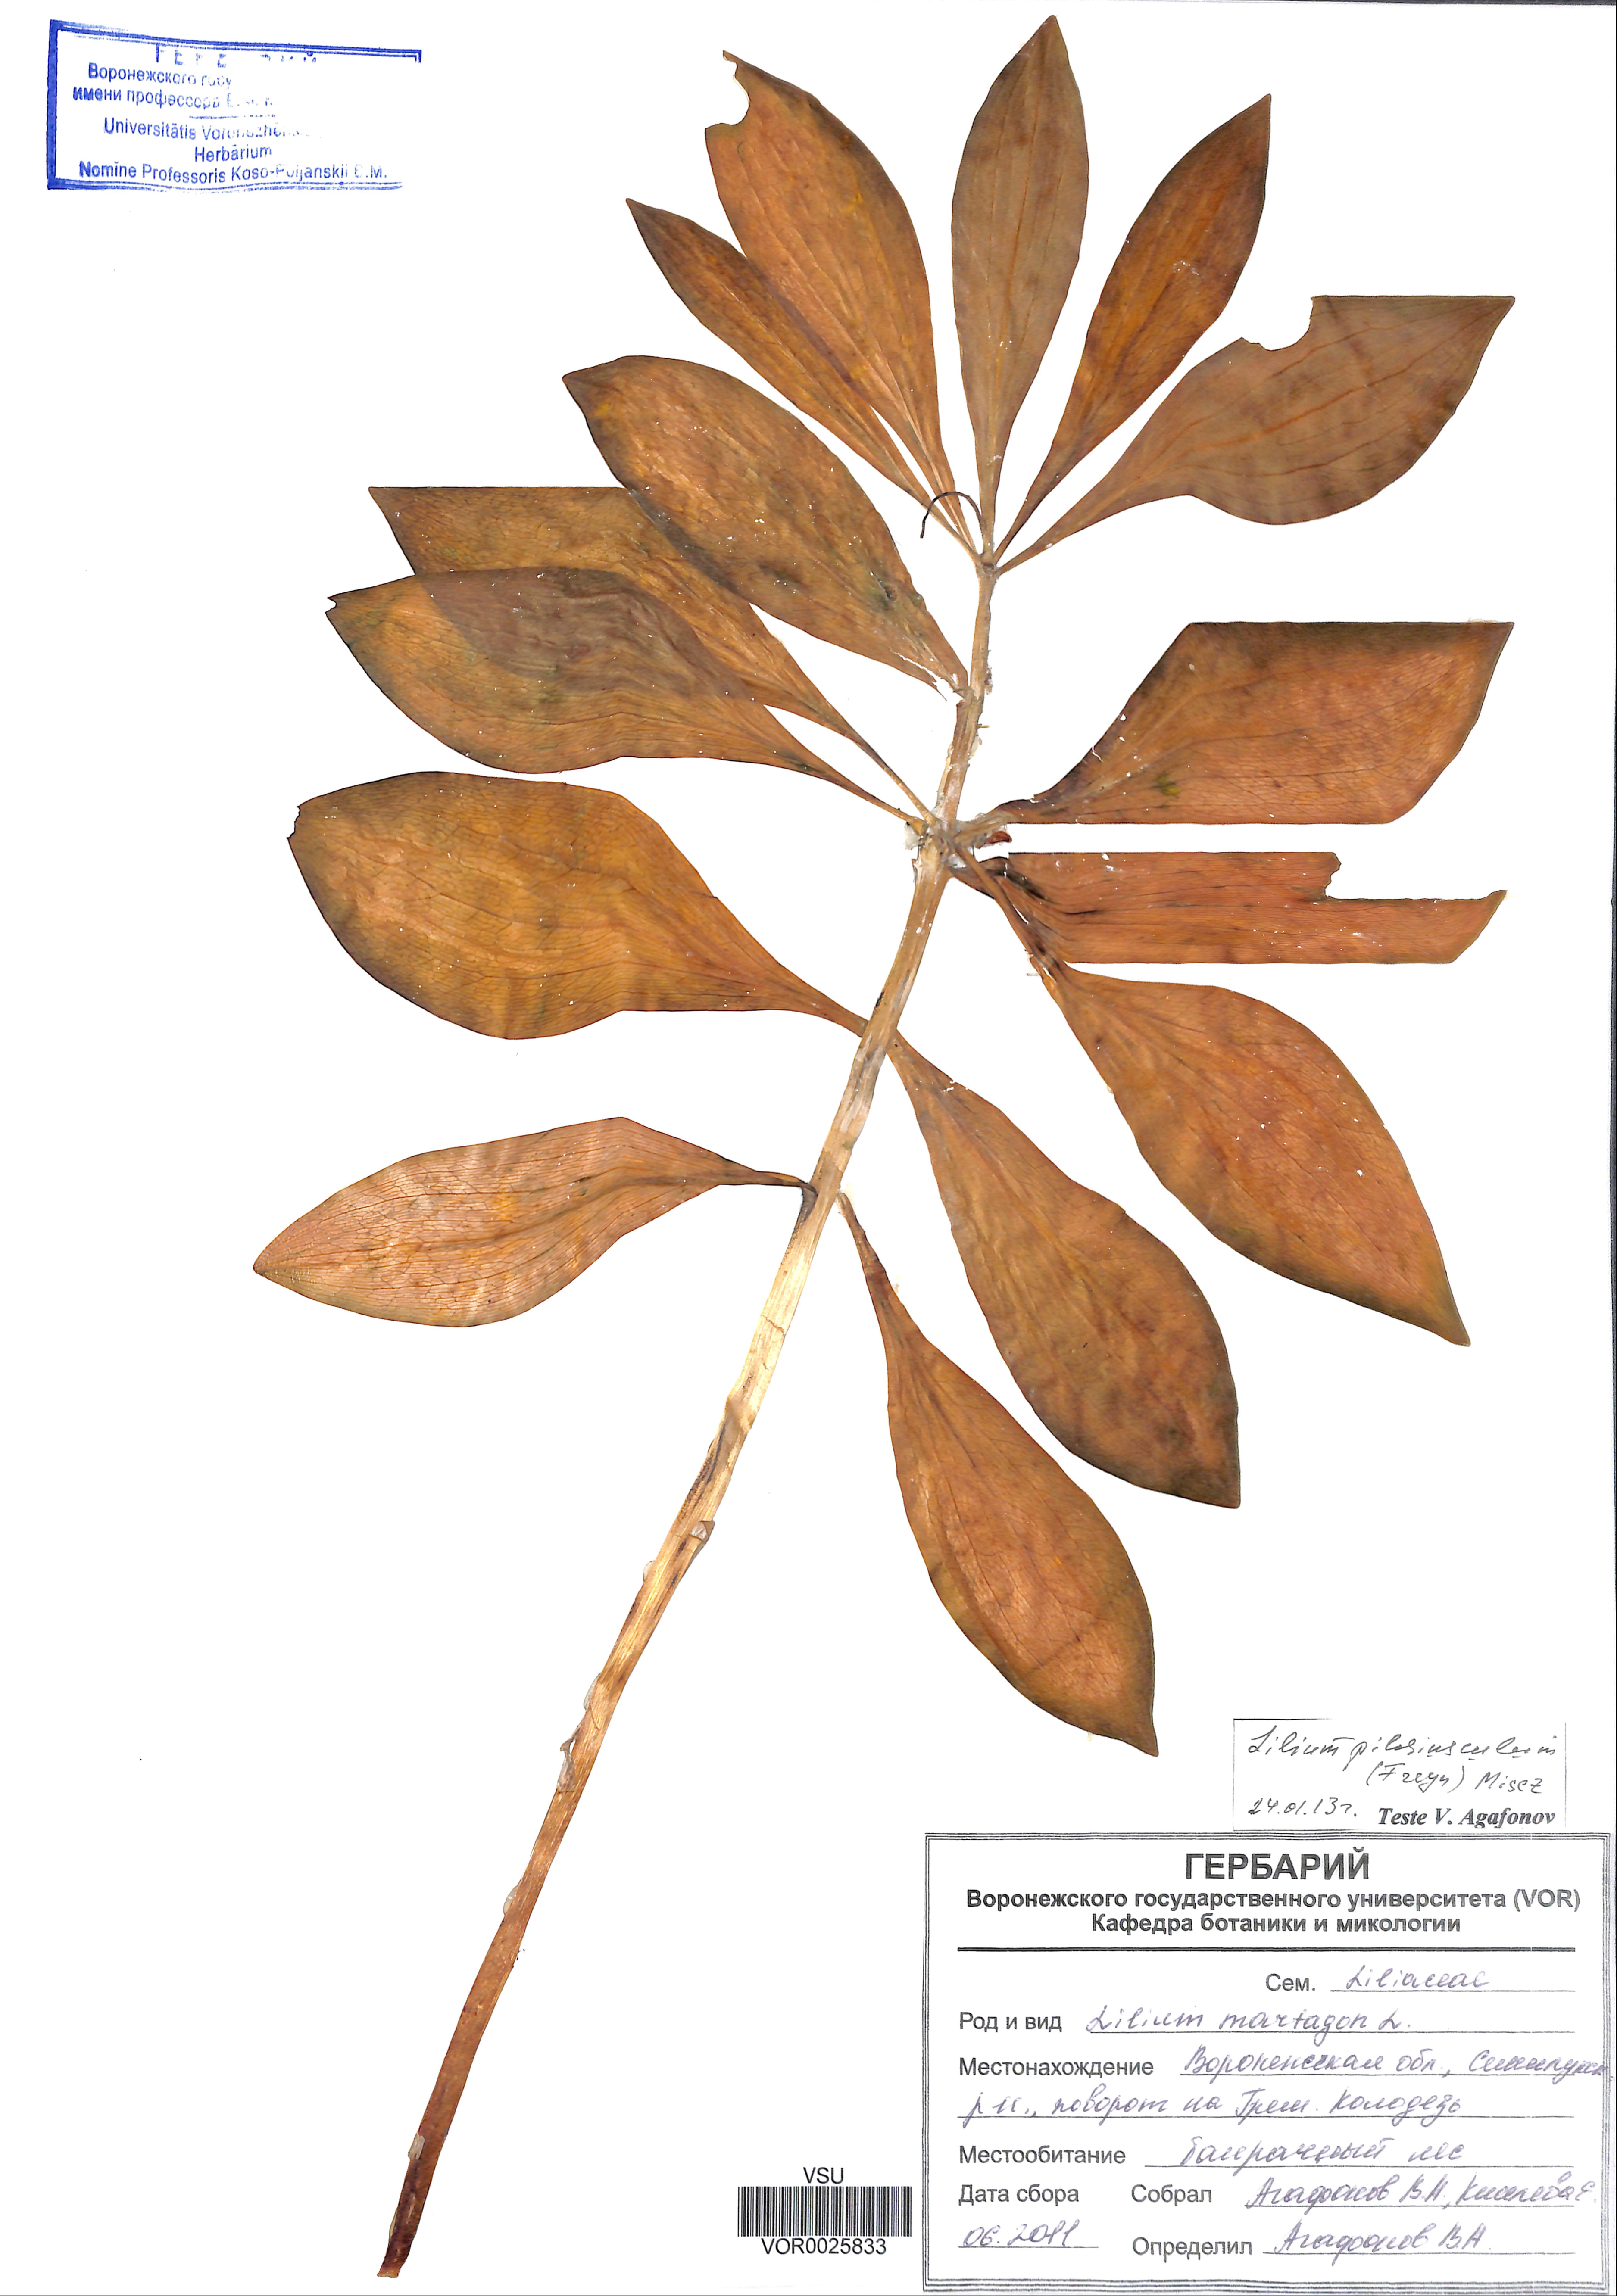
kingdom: Plantae
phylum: Tracheophyta
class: Liliopsida
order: Liliales
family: Liliaceae
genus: Lilium
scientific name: Lilium martagon
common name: Martagon lily
